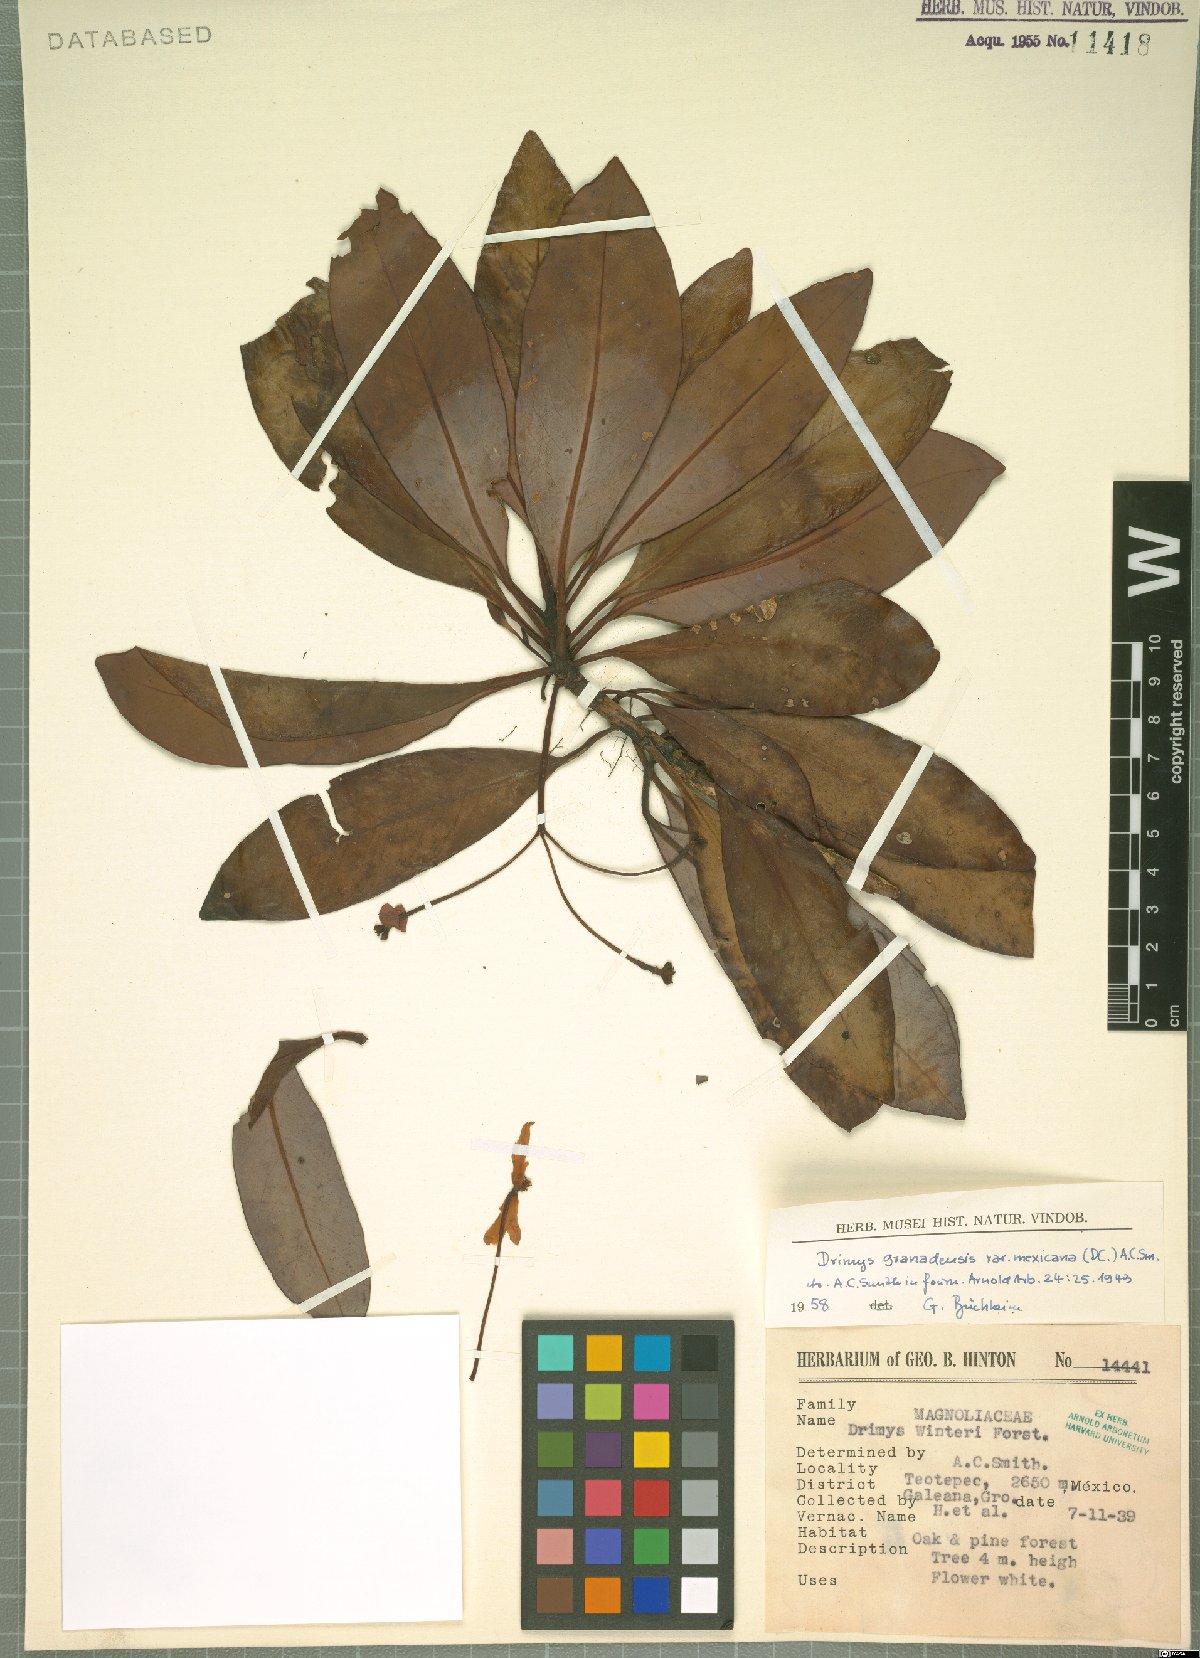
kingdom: Plantae
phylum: Tracheophyta
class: Magnoliopsida
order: Canellales
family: Winteraceae
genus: Drimys
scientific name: Drimys granadensis
